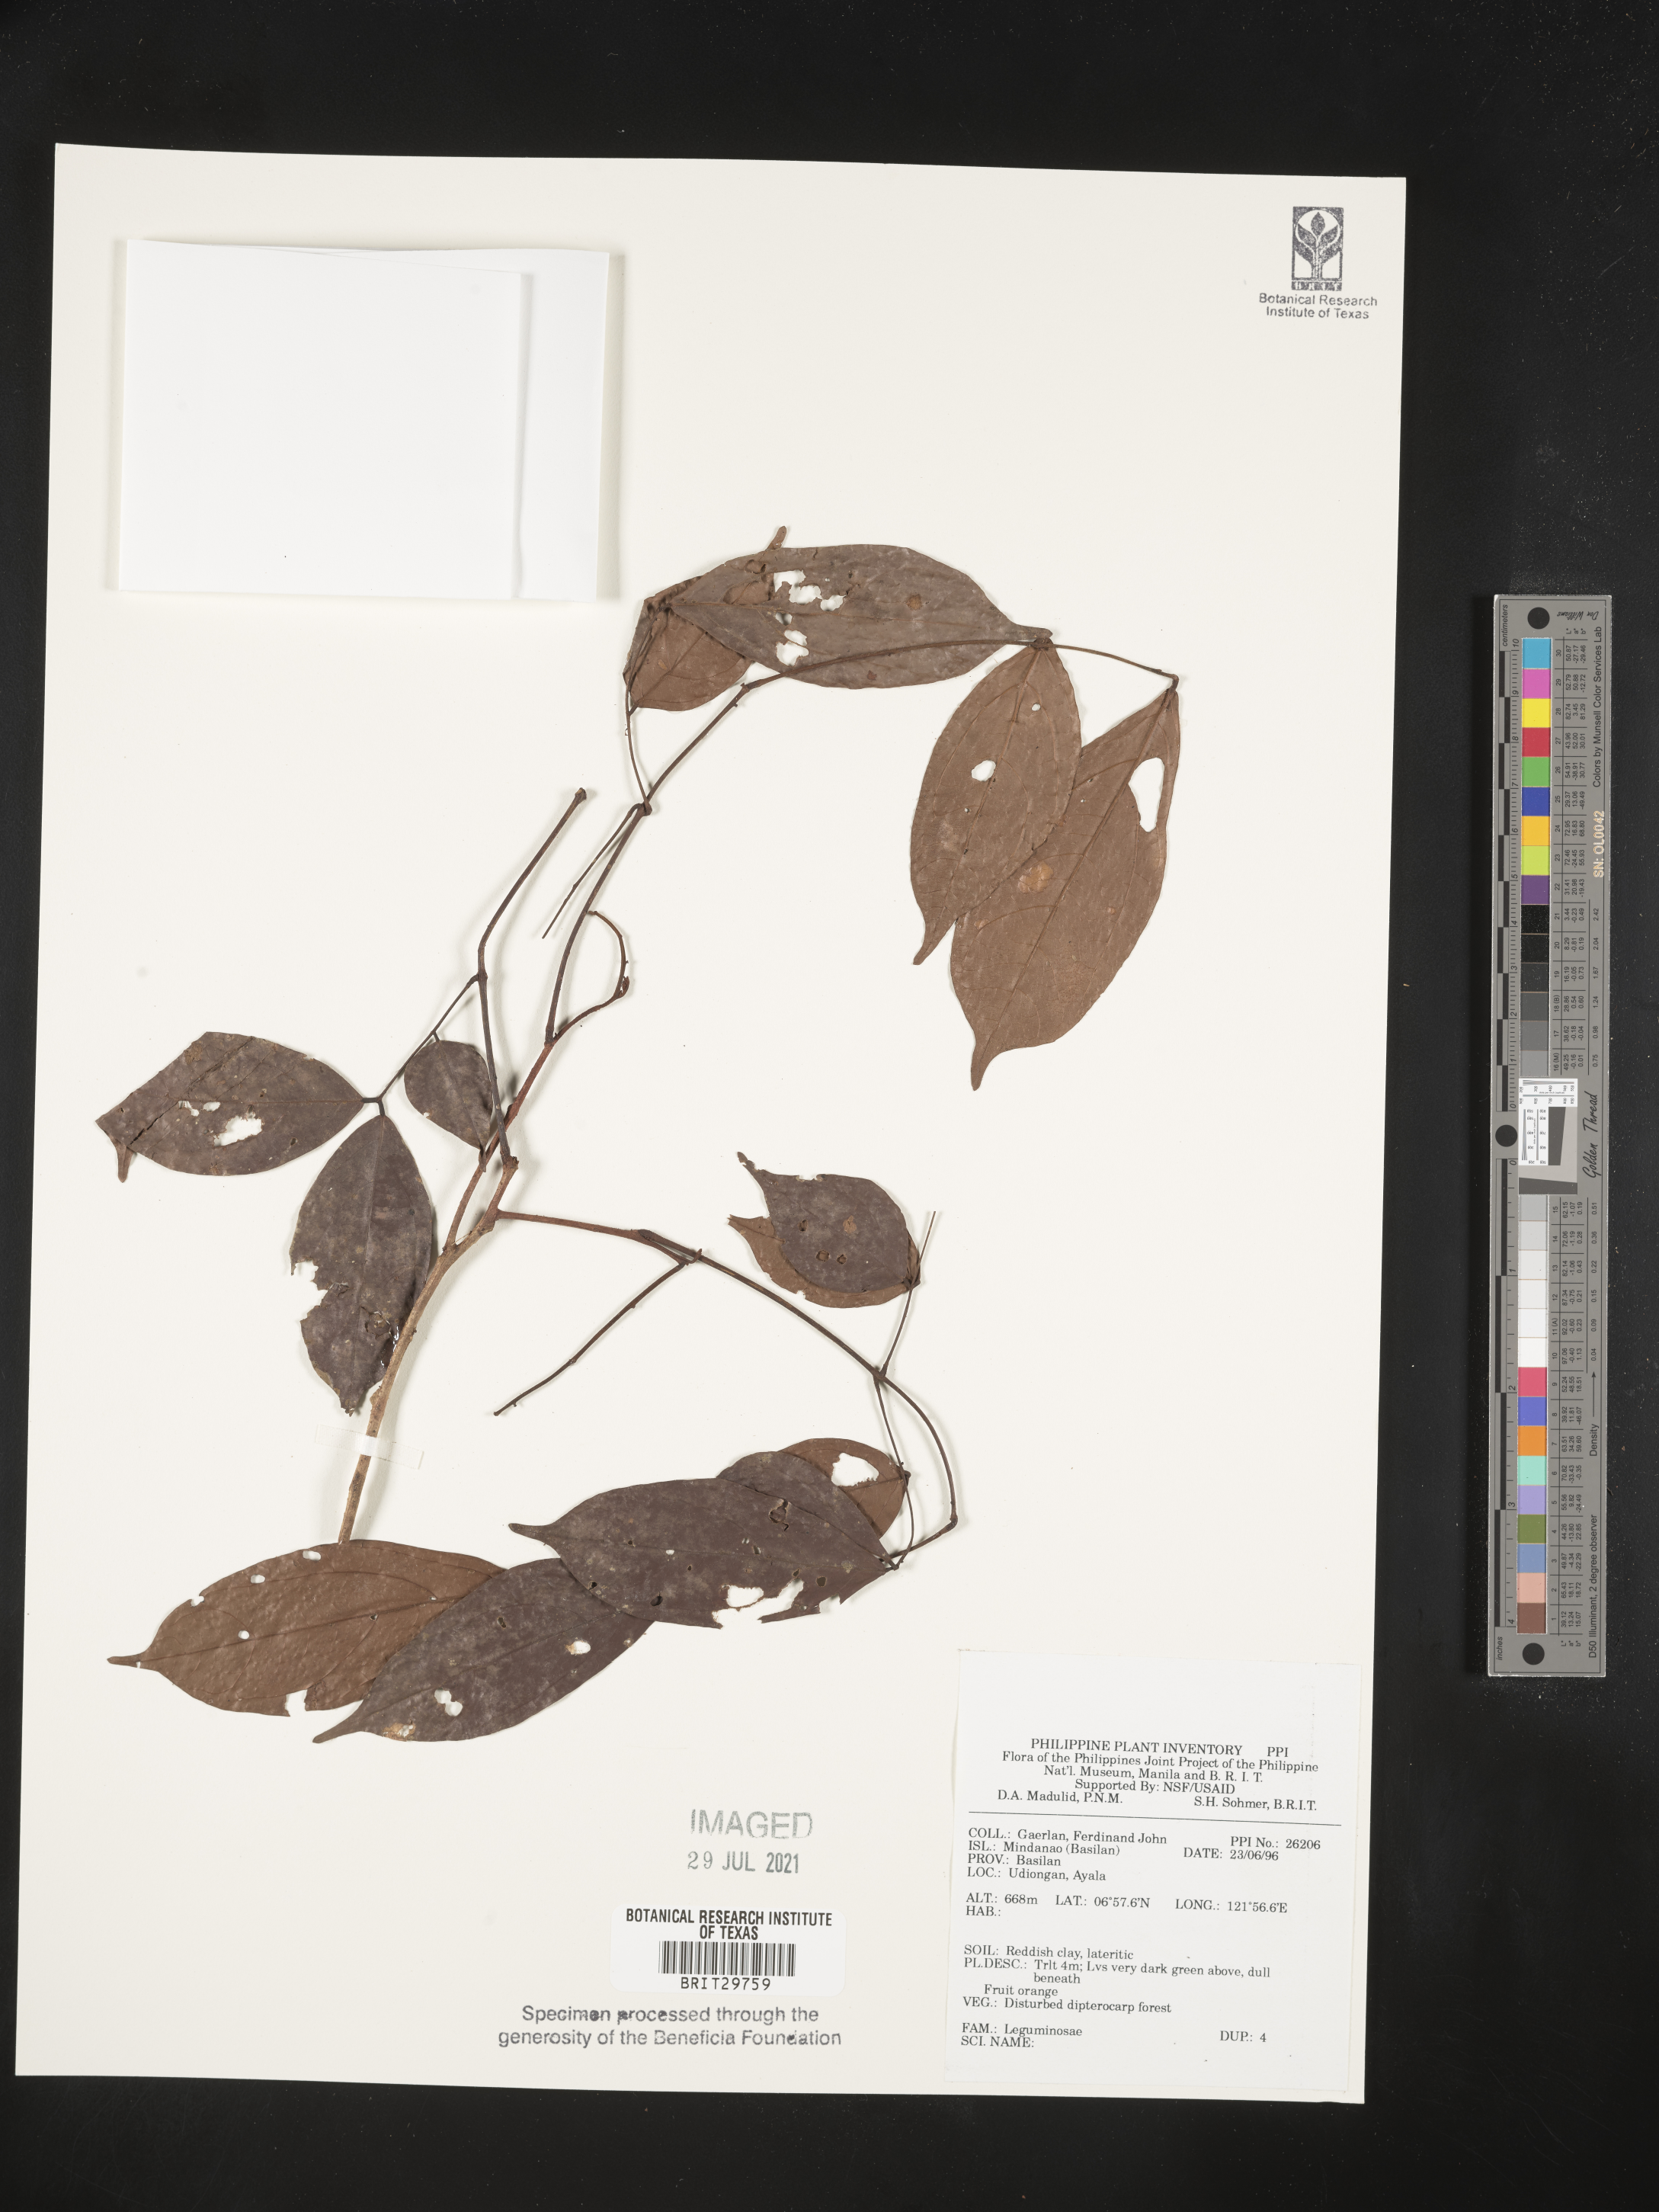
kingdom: Plantae
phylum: Tracheophyta
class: Magnoliopsida
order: Fabales
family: Fabaceae
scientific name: Fabaceae
